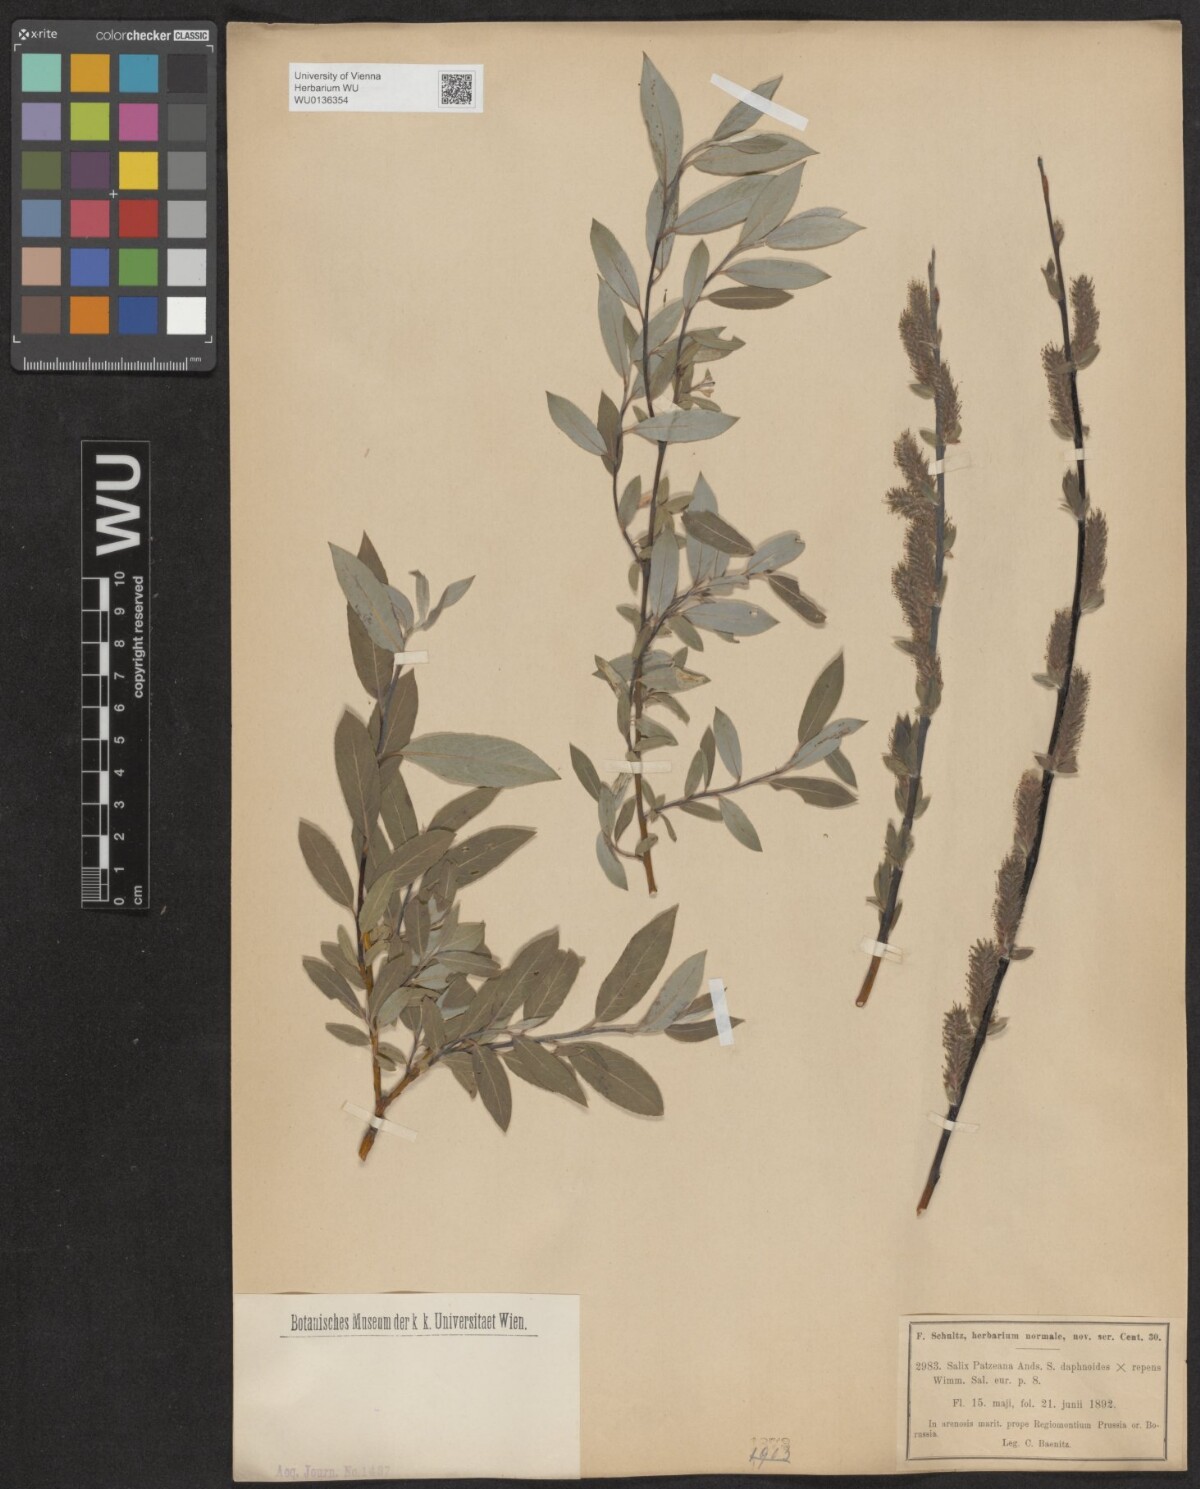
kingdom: Plantae
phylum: Tracheophyta
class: Magnoliopsida
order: Malpighiales
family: Salicaceae
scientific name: Salicaceae
